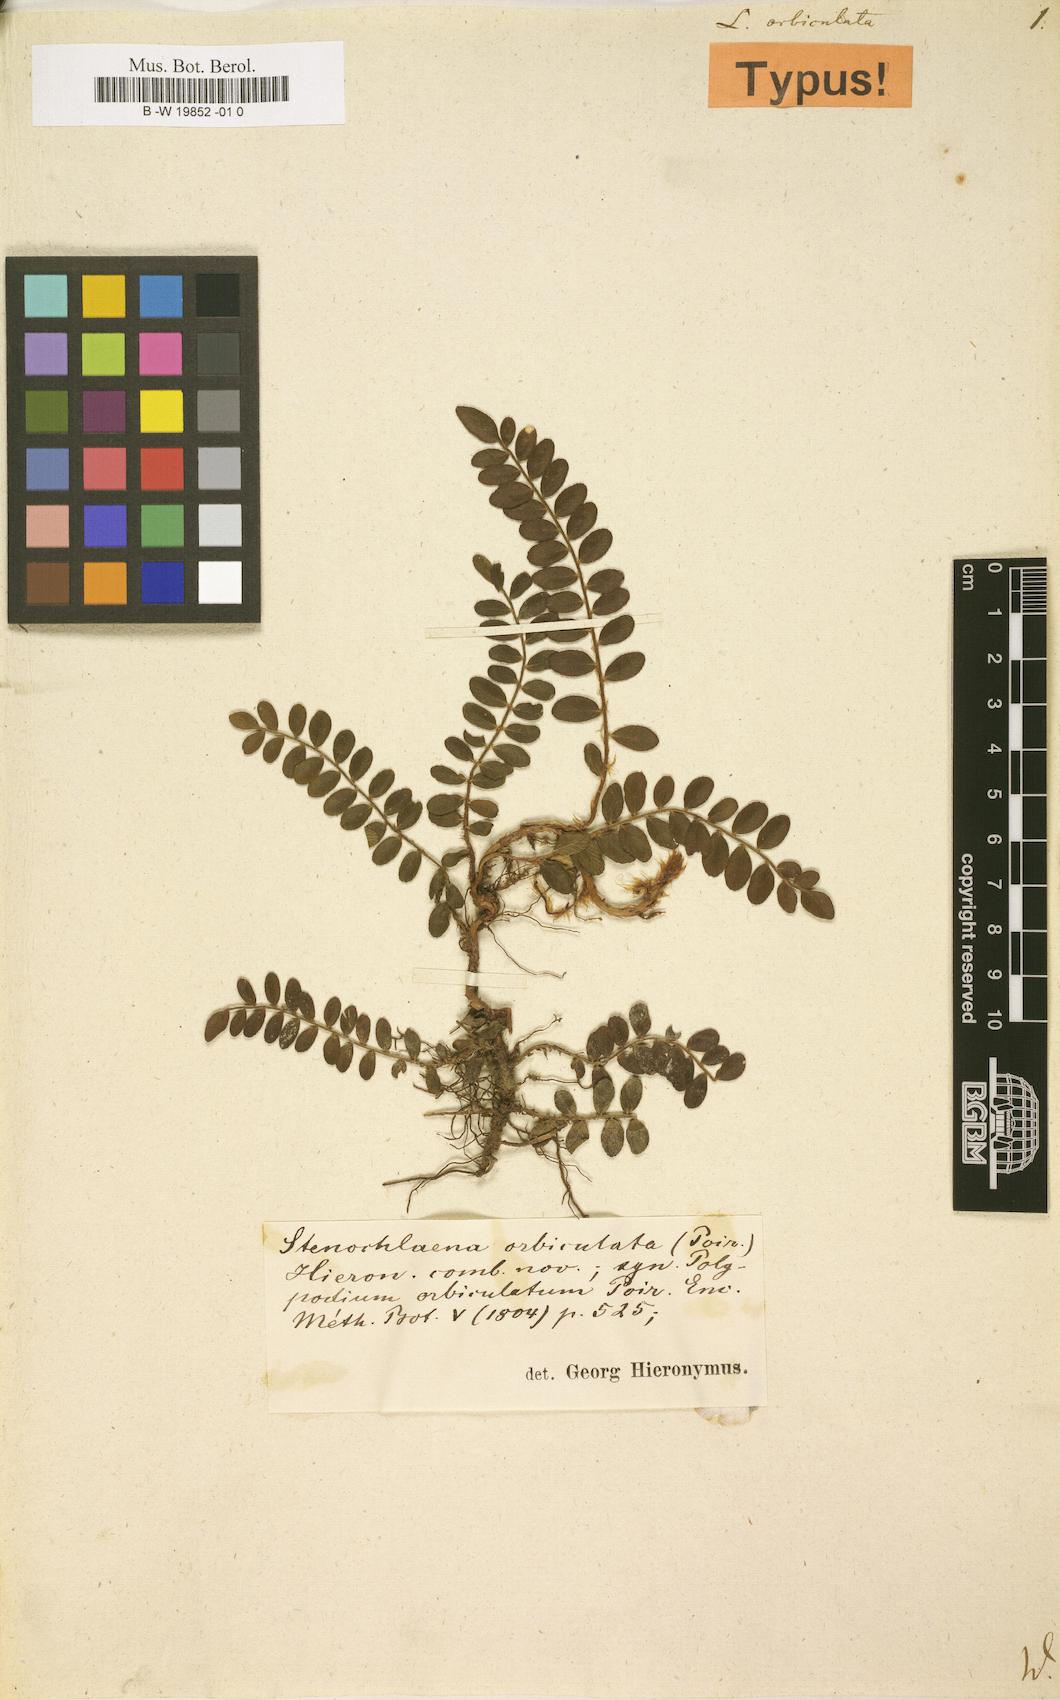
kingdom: Plantae
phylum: Tracheophyta
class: Polypodiopsida
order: Polypodiales
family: Lomariopsidaceae
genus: Lomariopsis
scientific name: Lomariopsis pollicina
